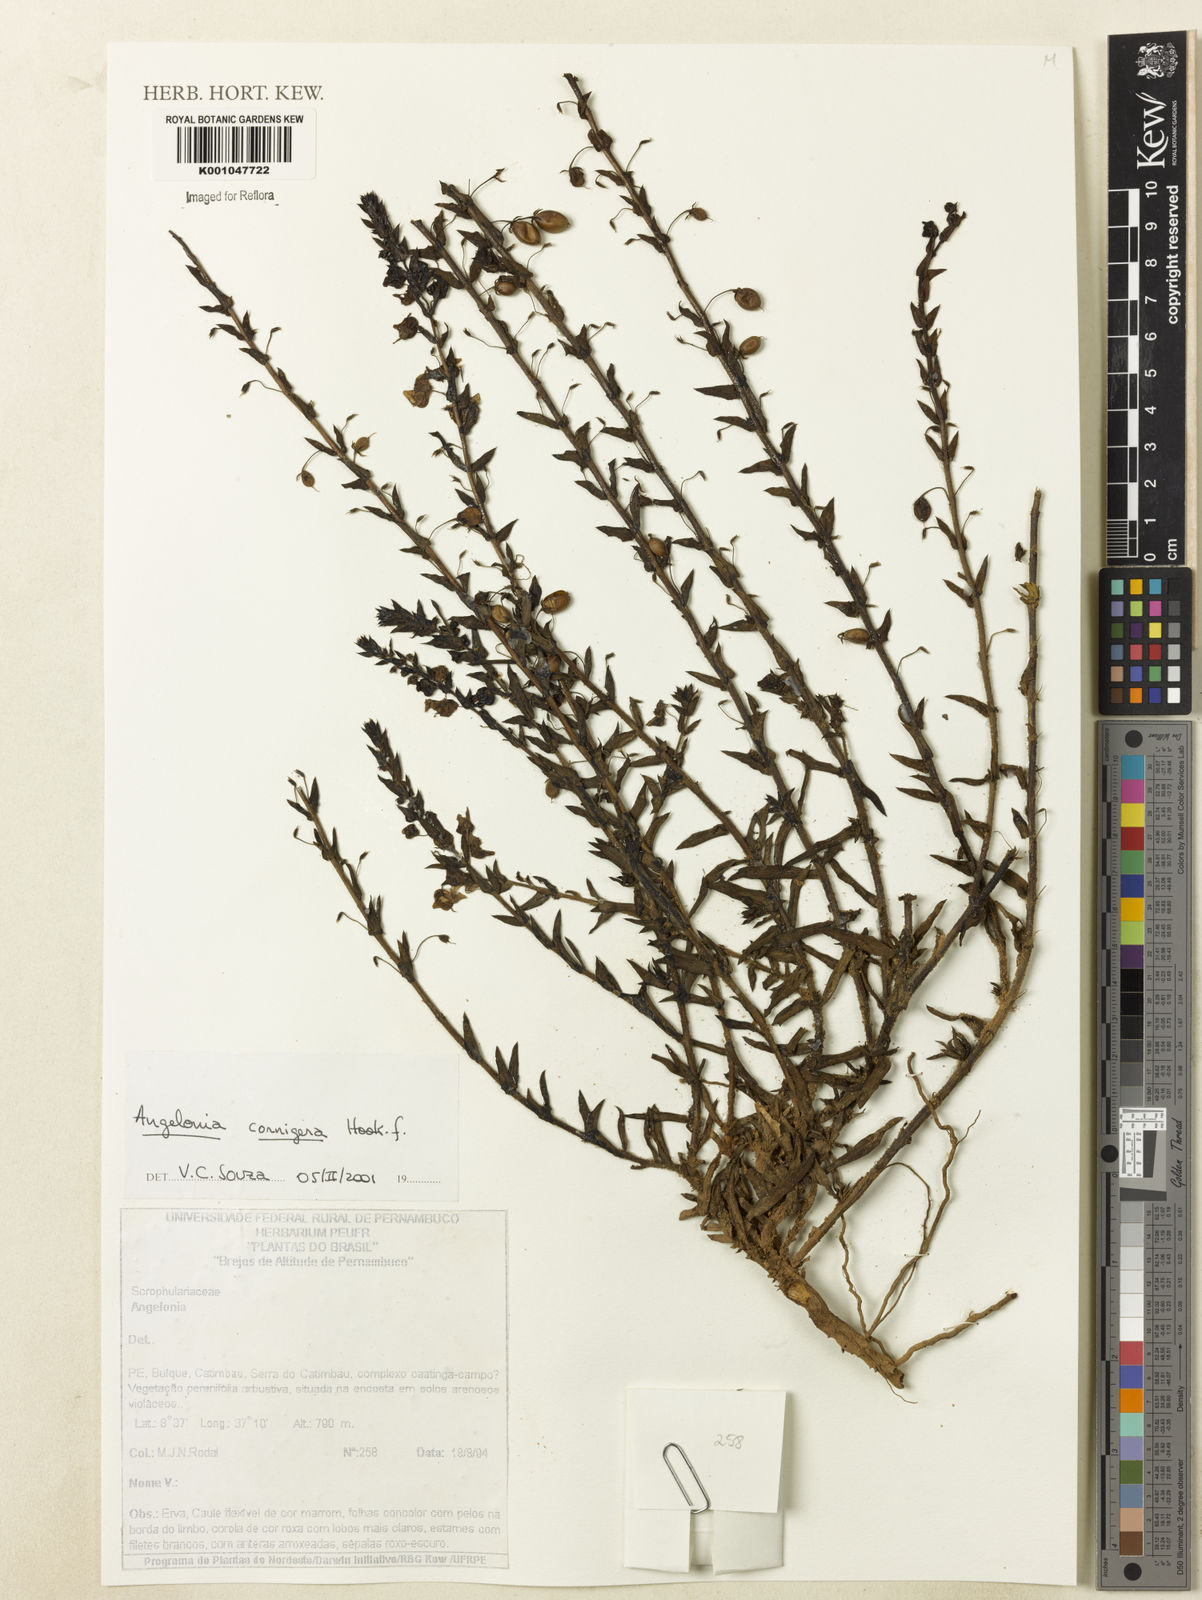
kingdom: Plantae
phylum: Tracheophyta
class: Magnoliopsida
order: Lamiales
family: Plantaginaceae
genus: Angelonia
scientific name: Angelonia cornigera
